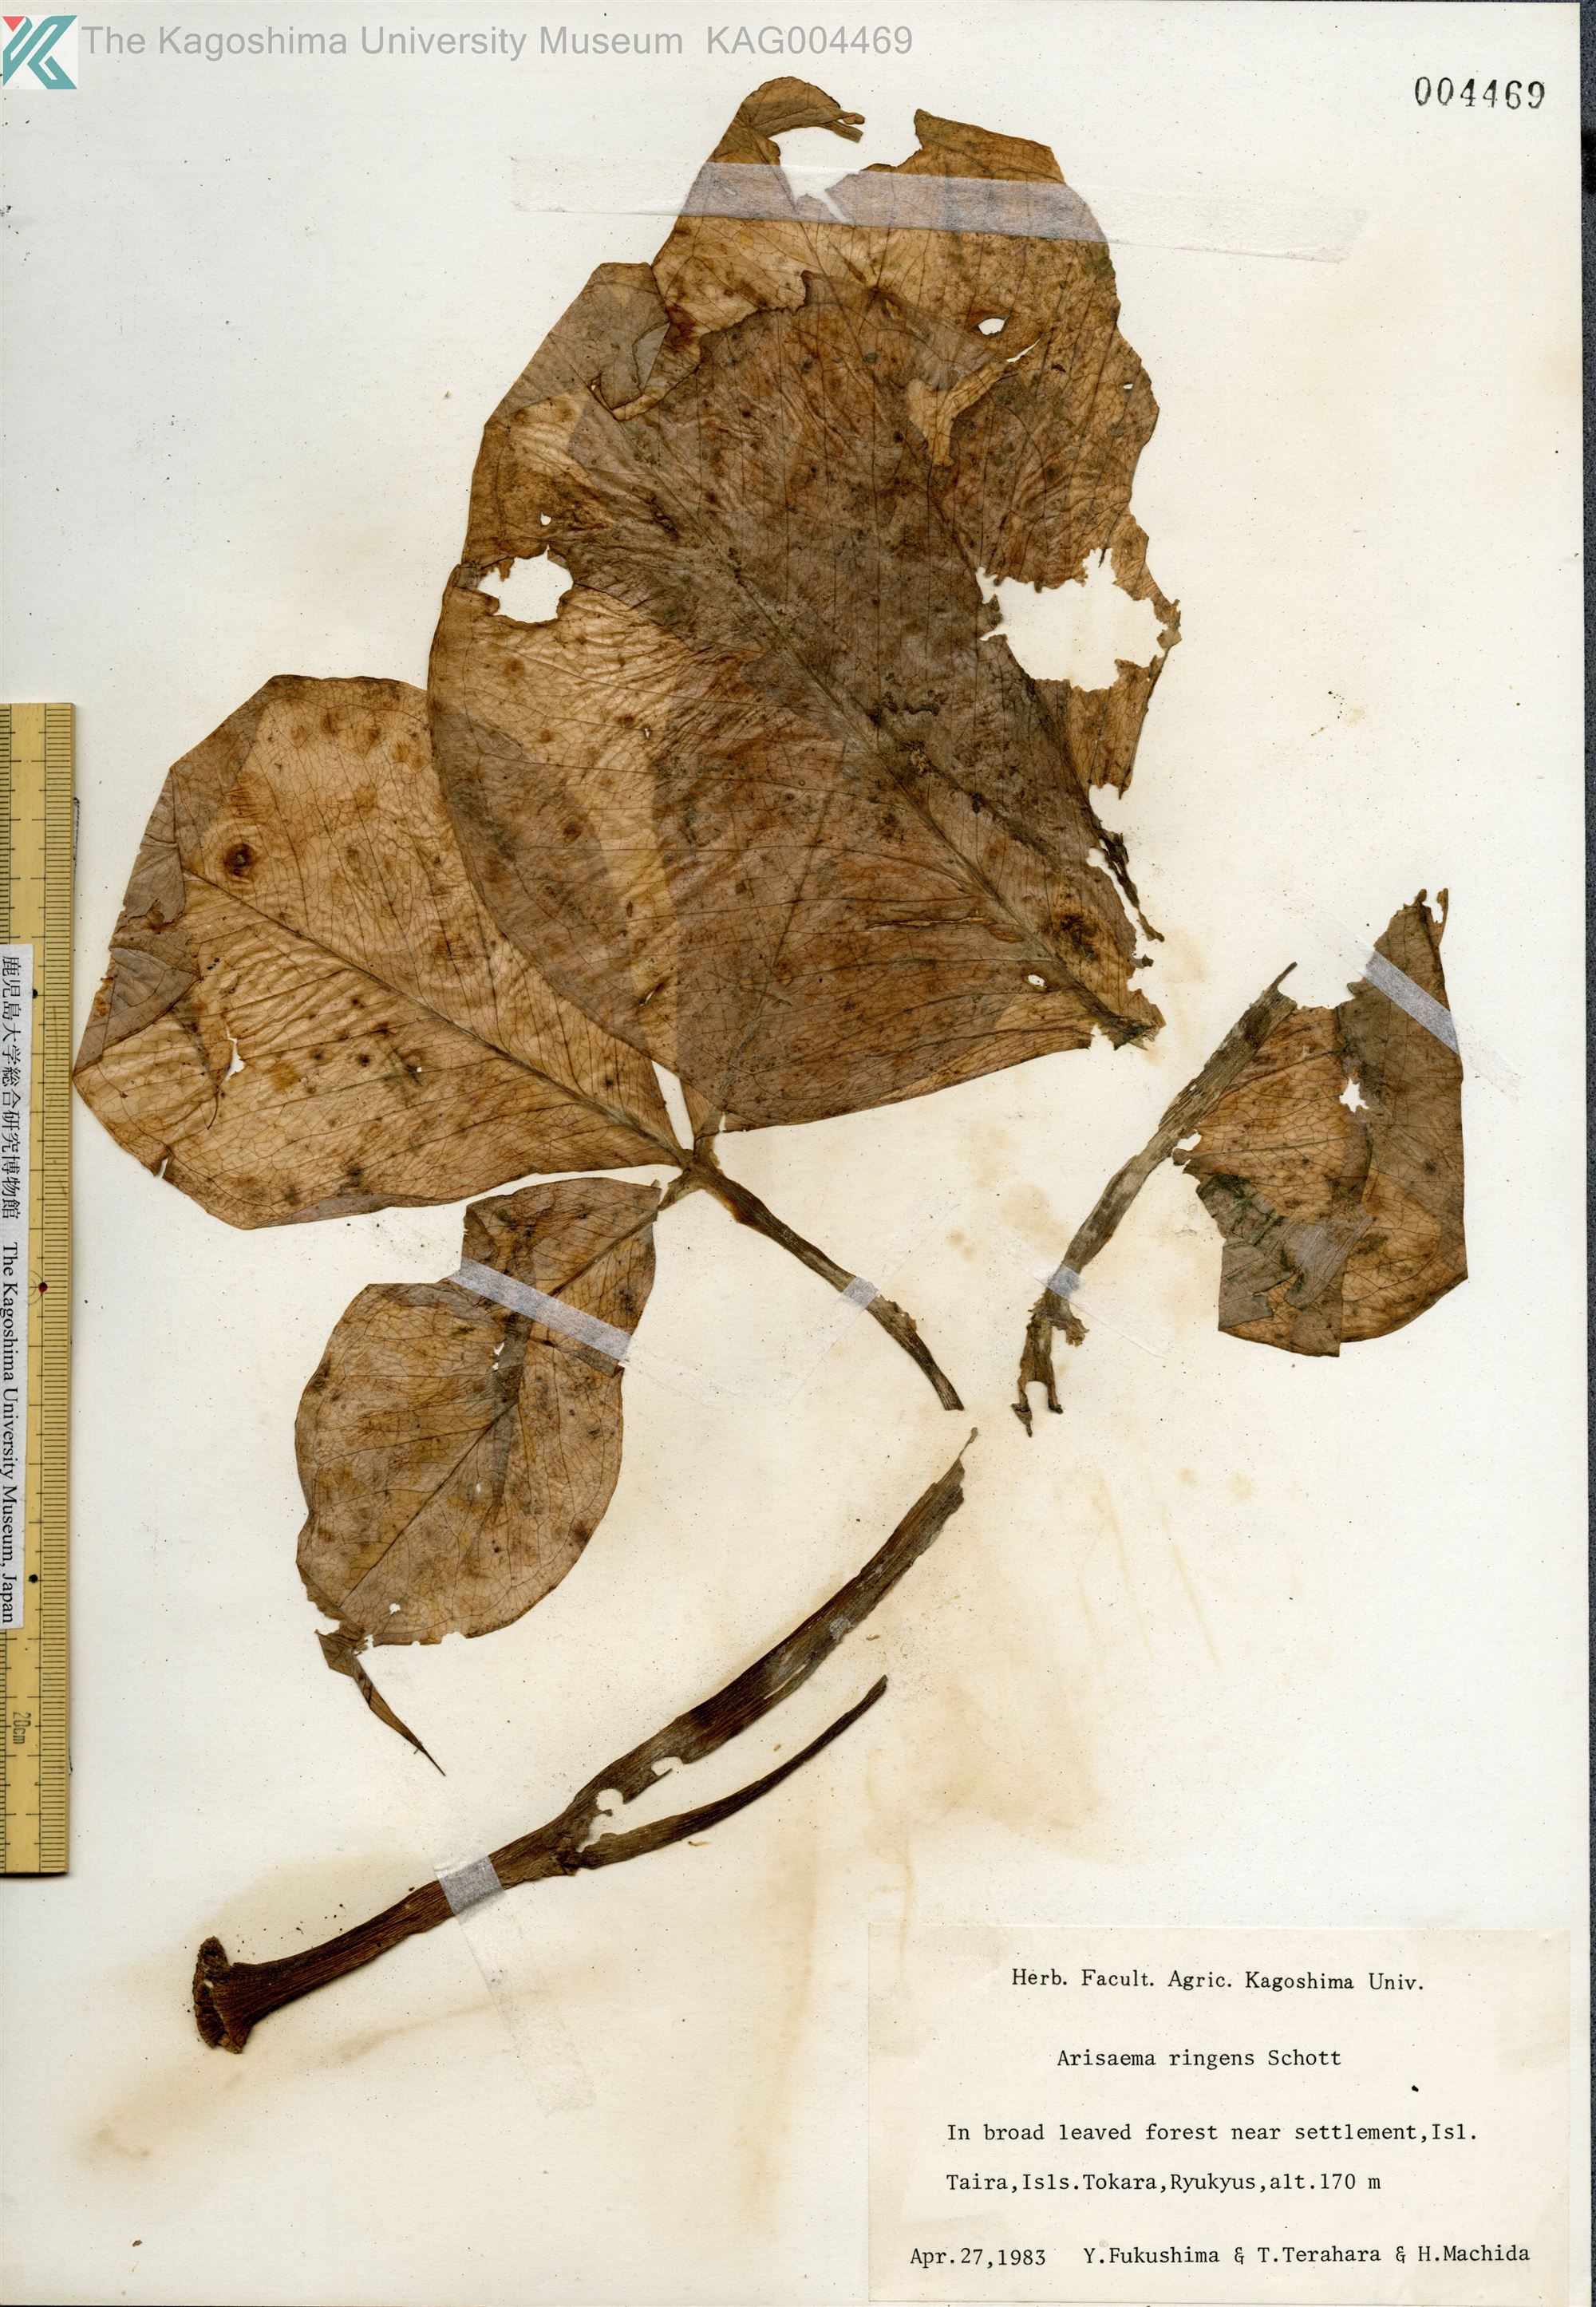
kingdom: Plantae
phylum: Tracheophyta
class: Liliopsida
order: Alismatales
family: Araceae
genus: Arisaema
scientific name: Arisaema ringens
